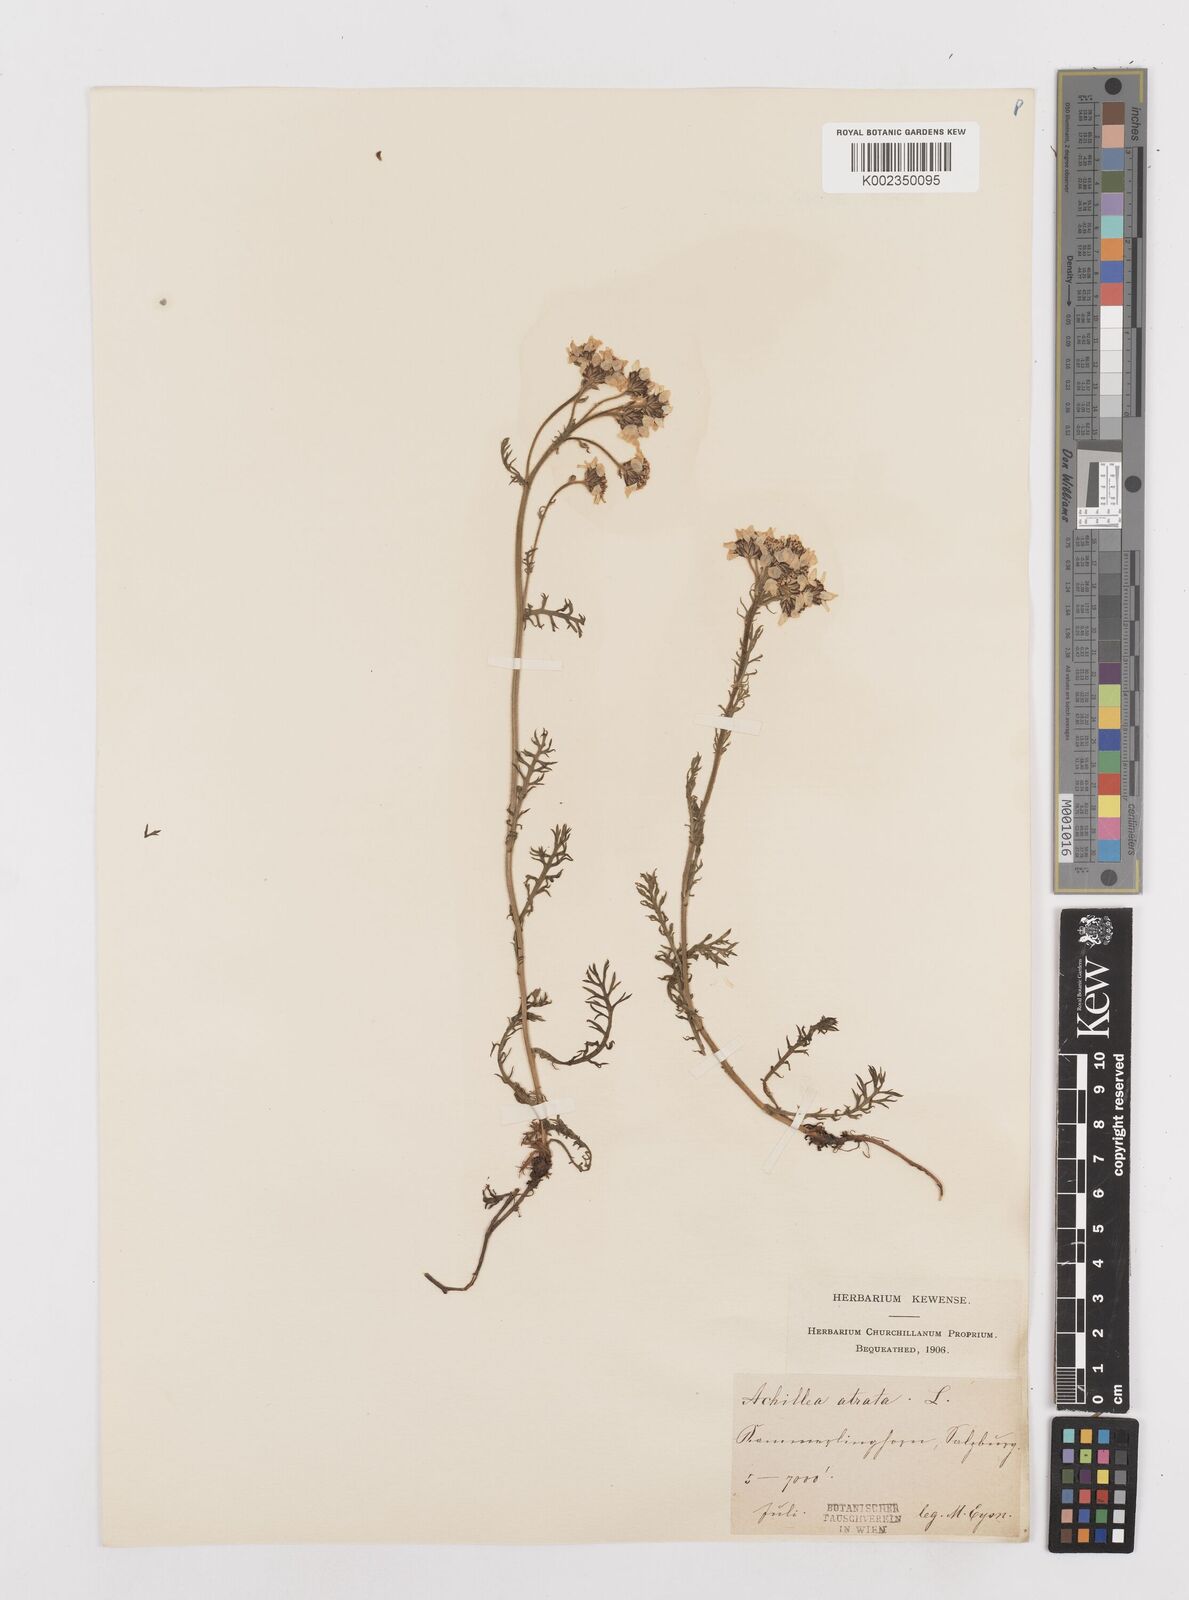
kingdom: Plantae
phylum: Tracheophyta
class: Magnoliopsida
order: Asterales
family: Asteraceae
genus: Achillea
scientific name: Achillea atrata
